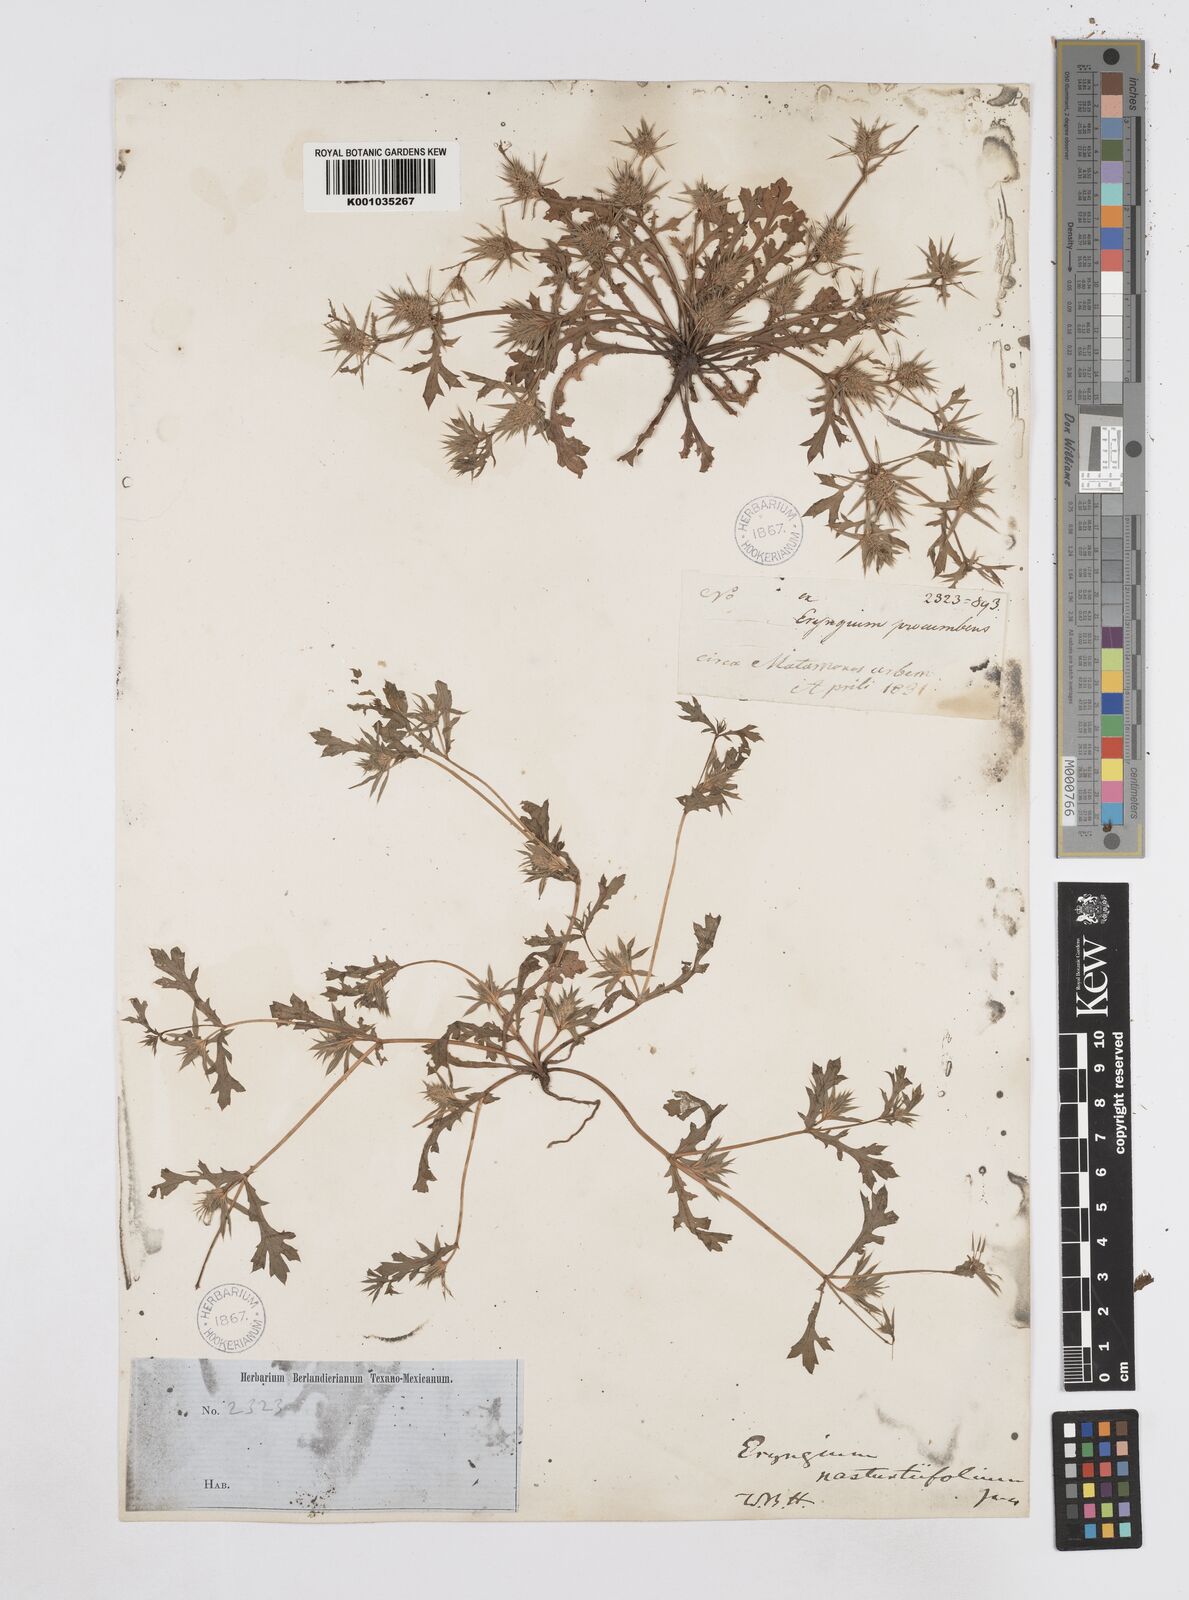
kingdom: Plantae
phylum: Tracheophyta
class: Magnoliopsida
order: Apiales
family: Apiaceae
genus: Eryngium
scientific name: Eryngium nasturtiifolium
